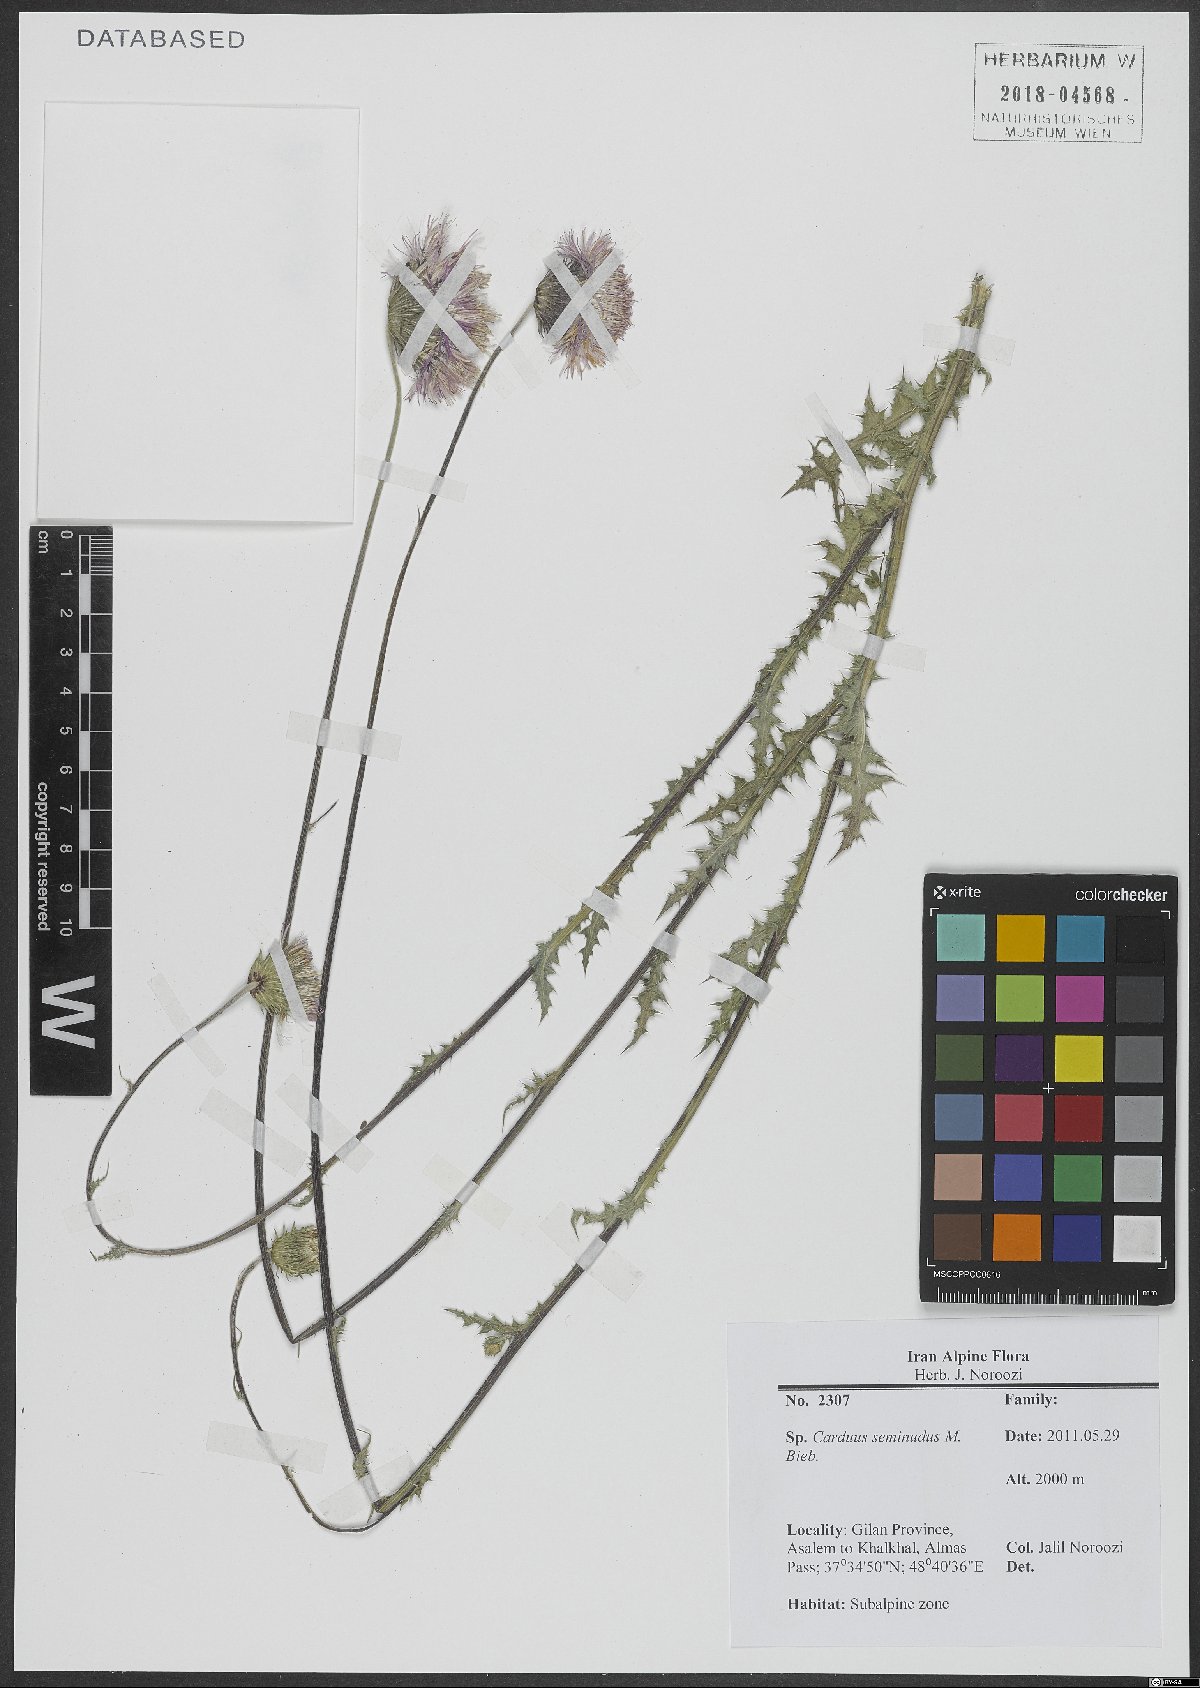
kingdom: Plantae
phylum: Tracheophyta
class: Magnoliopsida
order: Asterales
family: Asteraceae
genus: Carduus
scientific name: Carduus seminudus
